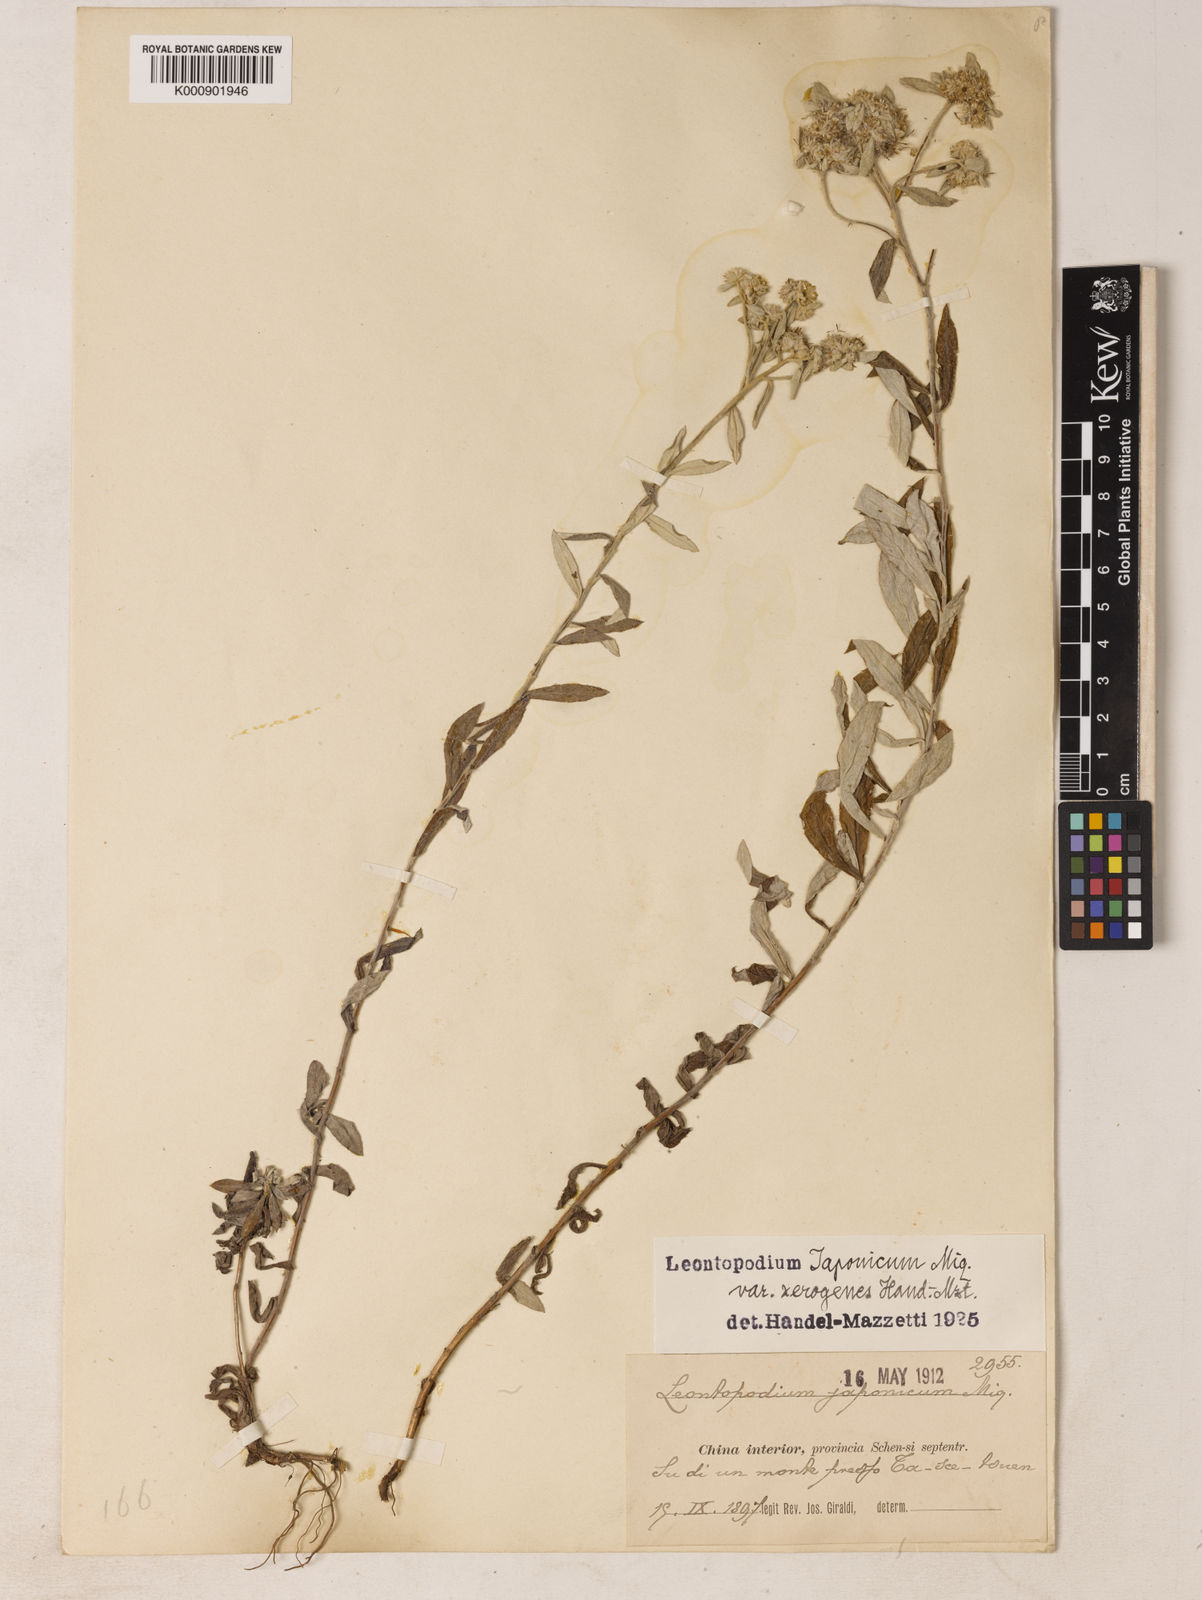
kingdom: Plantae
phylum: Tracheophyta
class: Magnoliopsida
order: Asterales
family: Asteraceae
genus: Leontopodium
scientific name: Leontopodium japonicum
